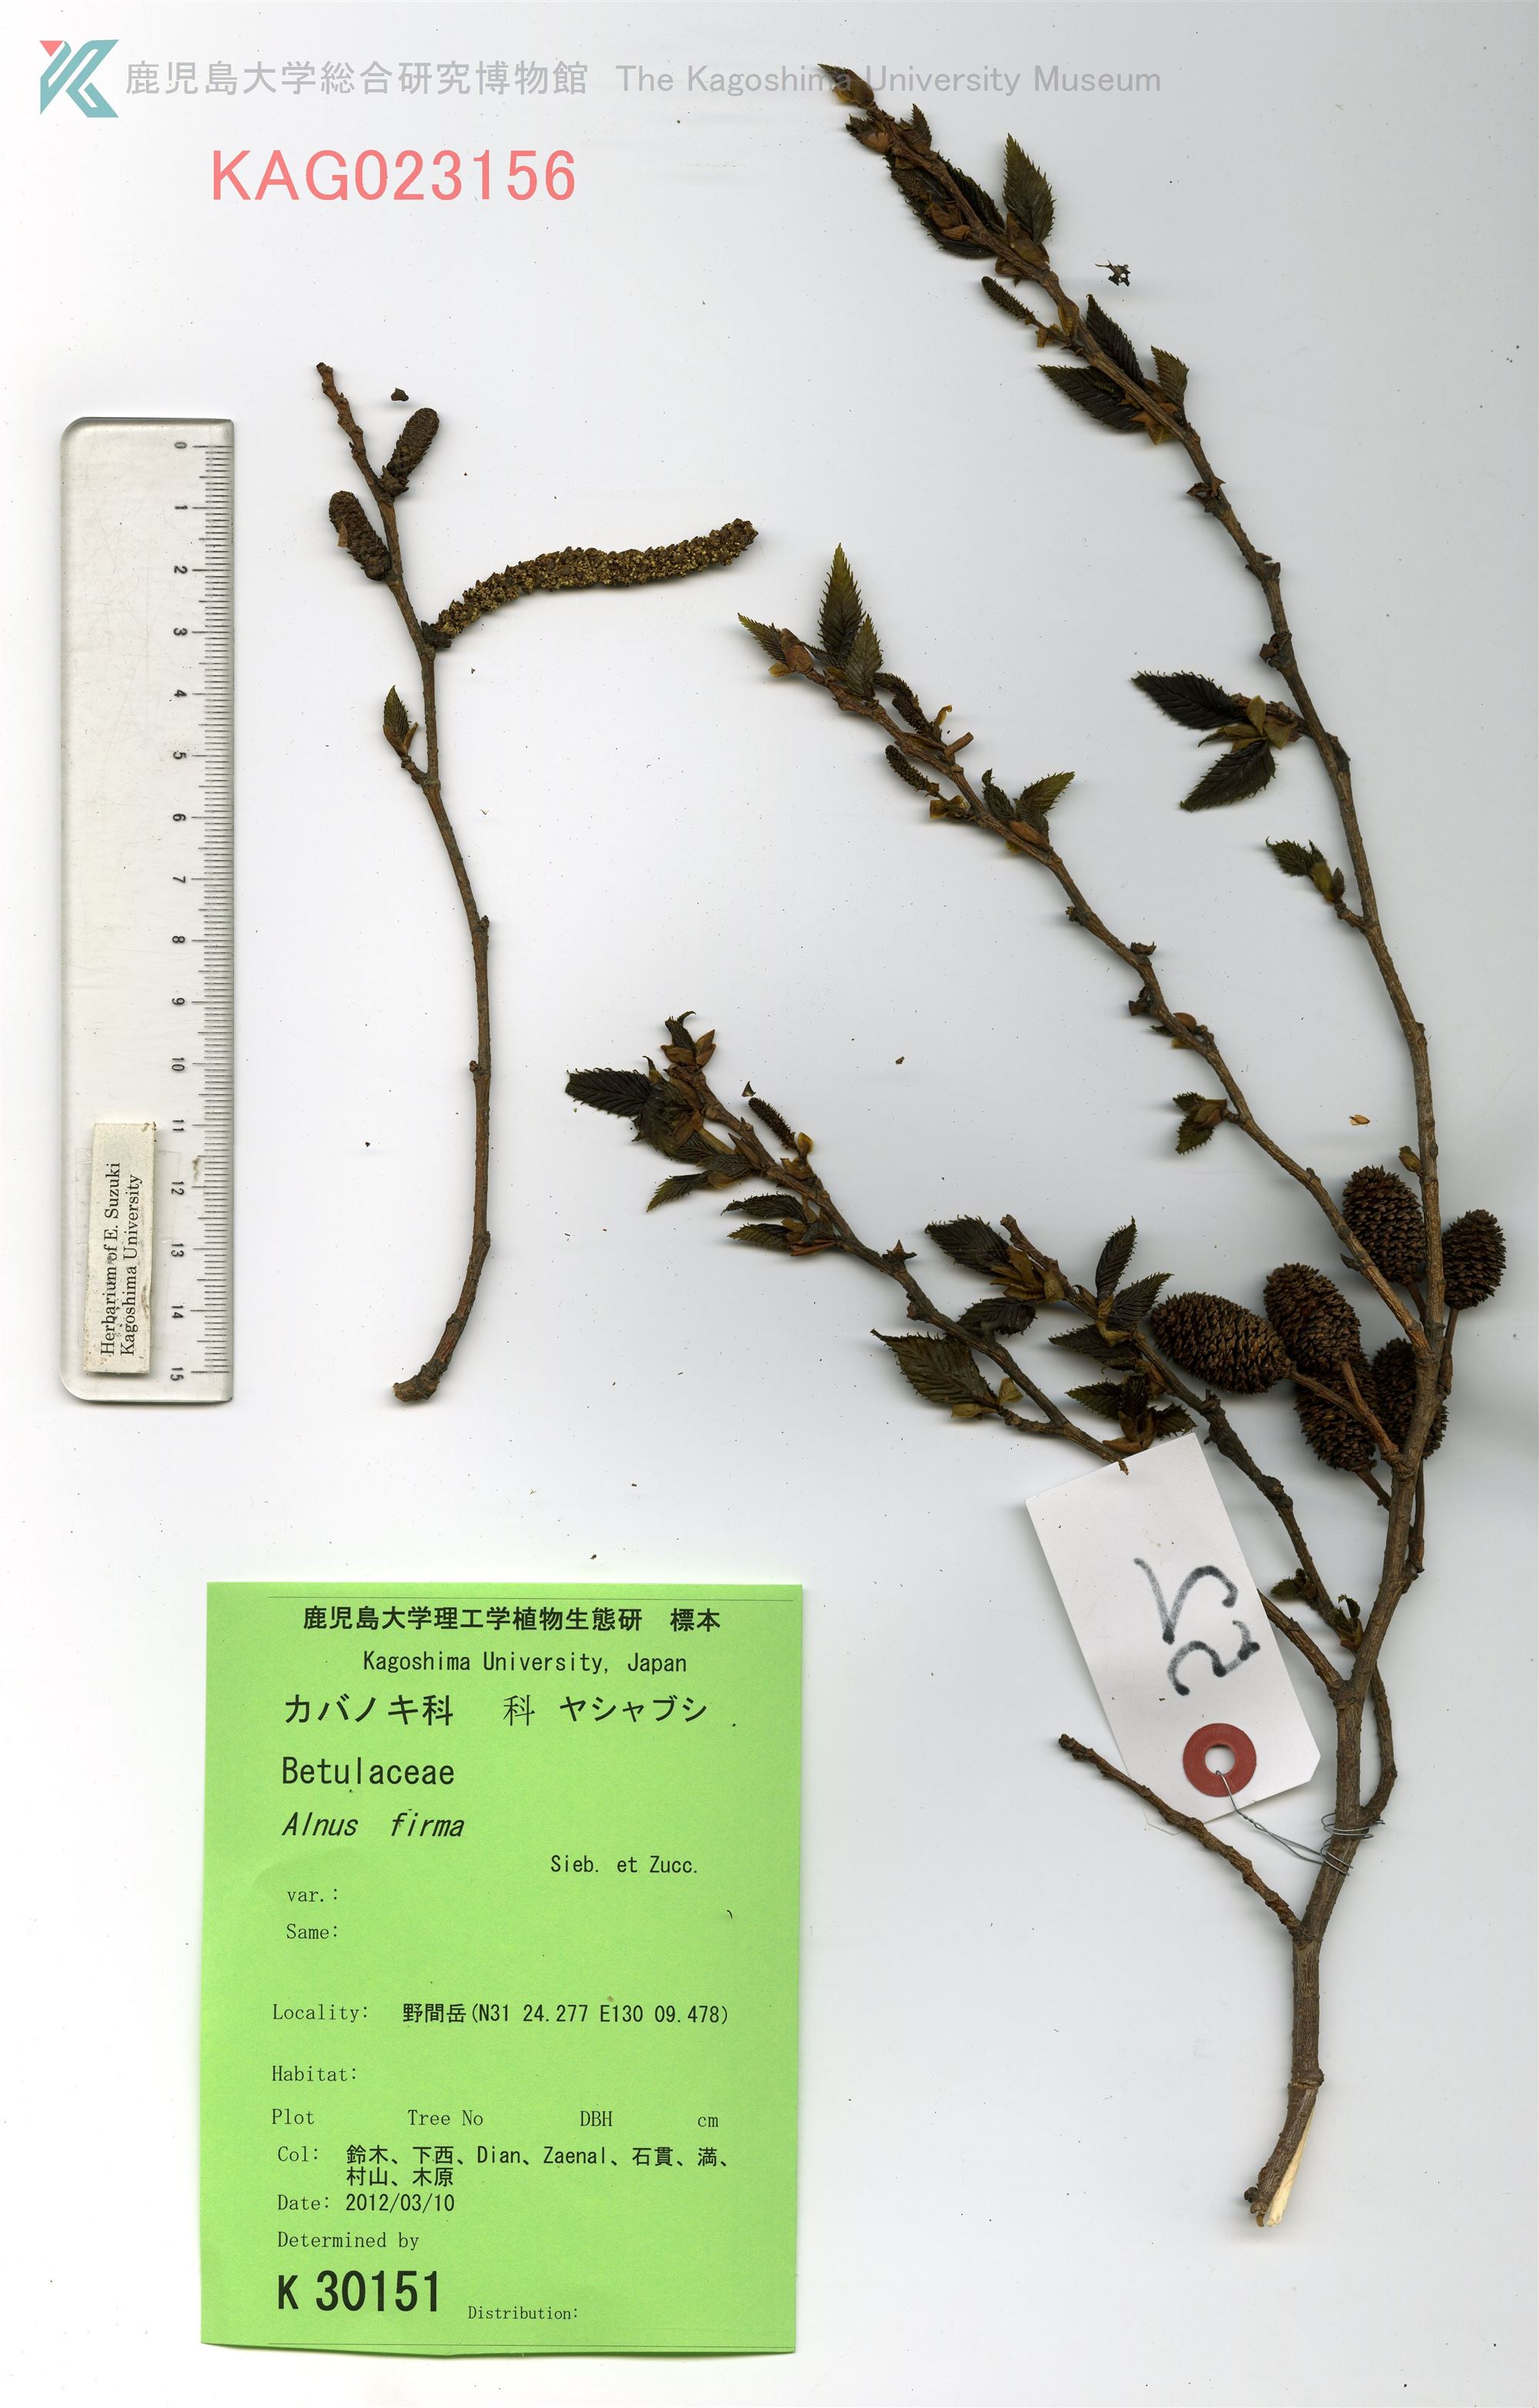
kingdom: Plantae
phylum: Tracheophyta
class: Magnoliopsida
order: Fagales
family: Betulaceae
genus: Alnus
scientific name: Alnus firma
